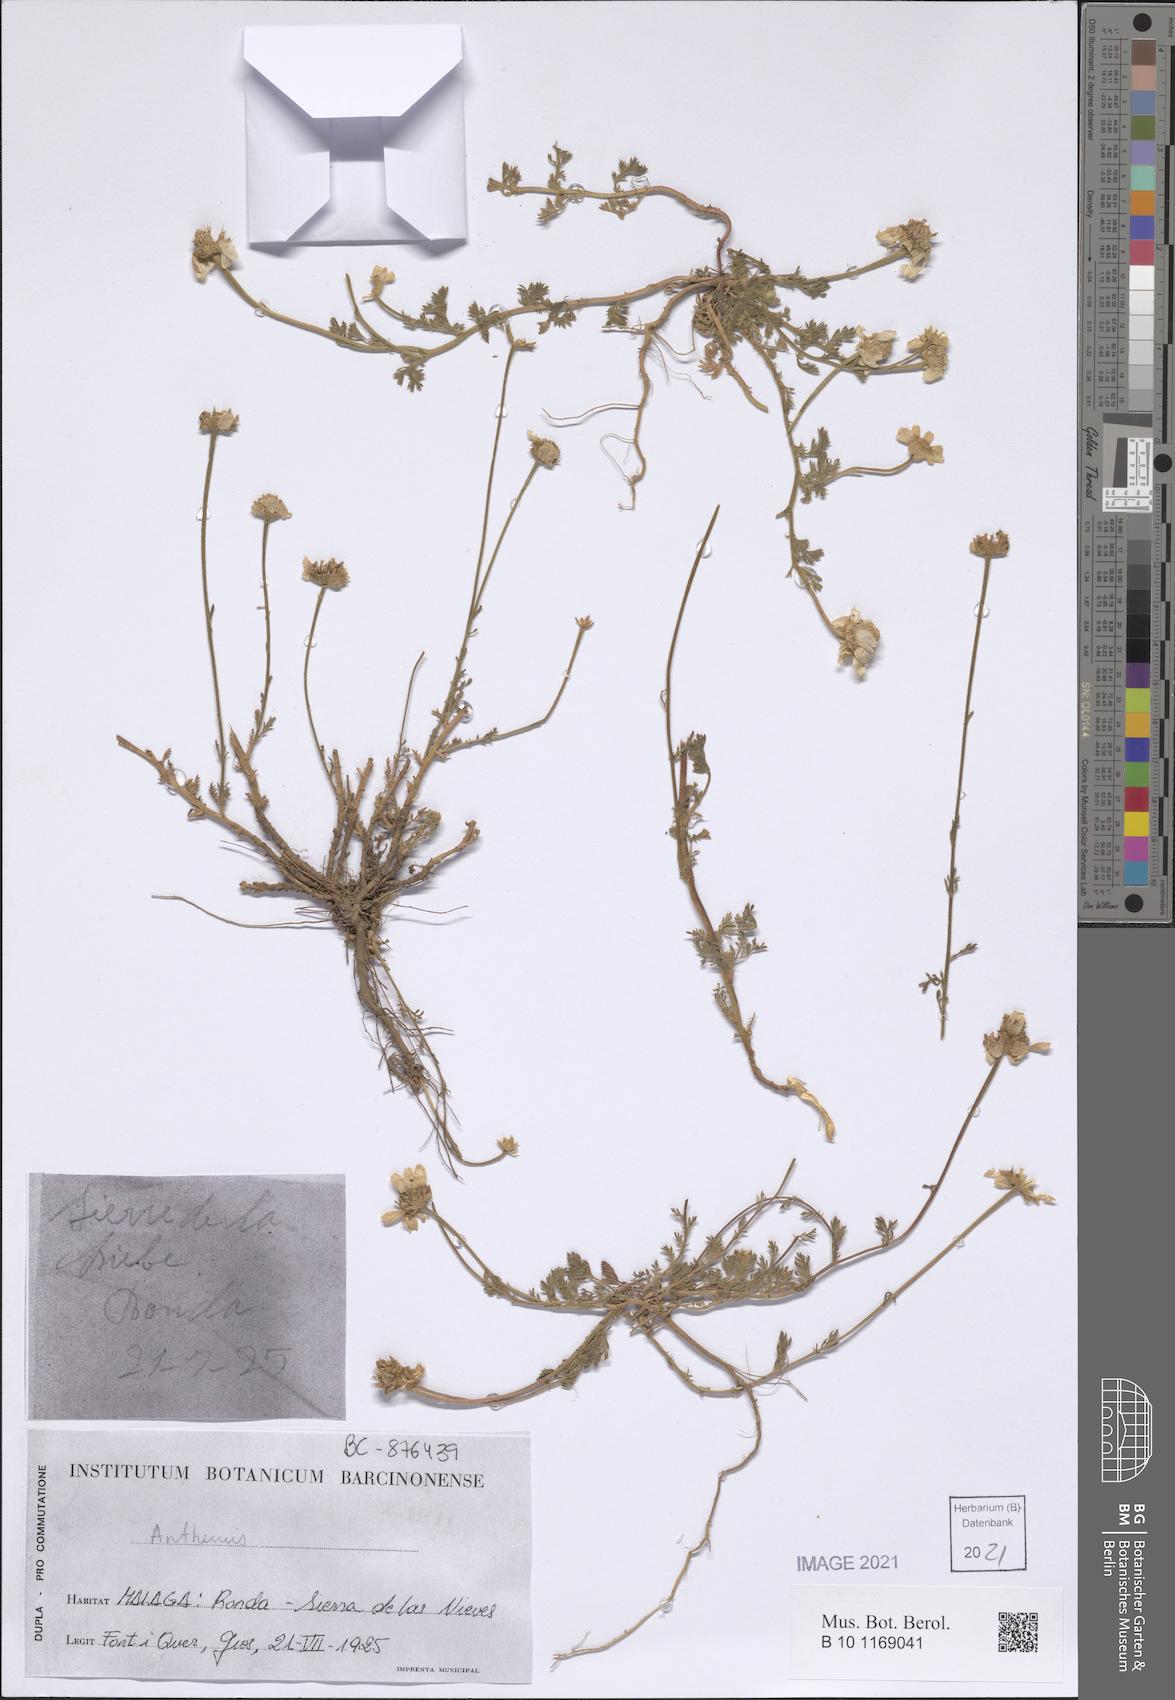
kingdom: Plantae
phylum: Tracheophyta
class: Magnoliopsida
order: Asterales
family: Asteraceae
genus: Anthemis
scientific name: Anthemis
